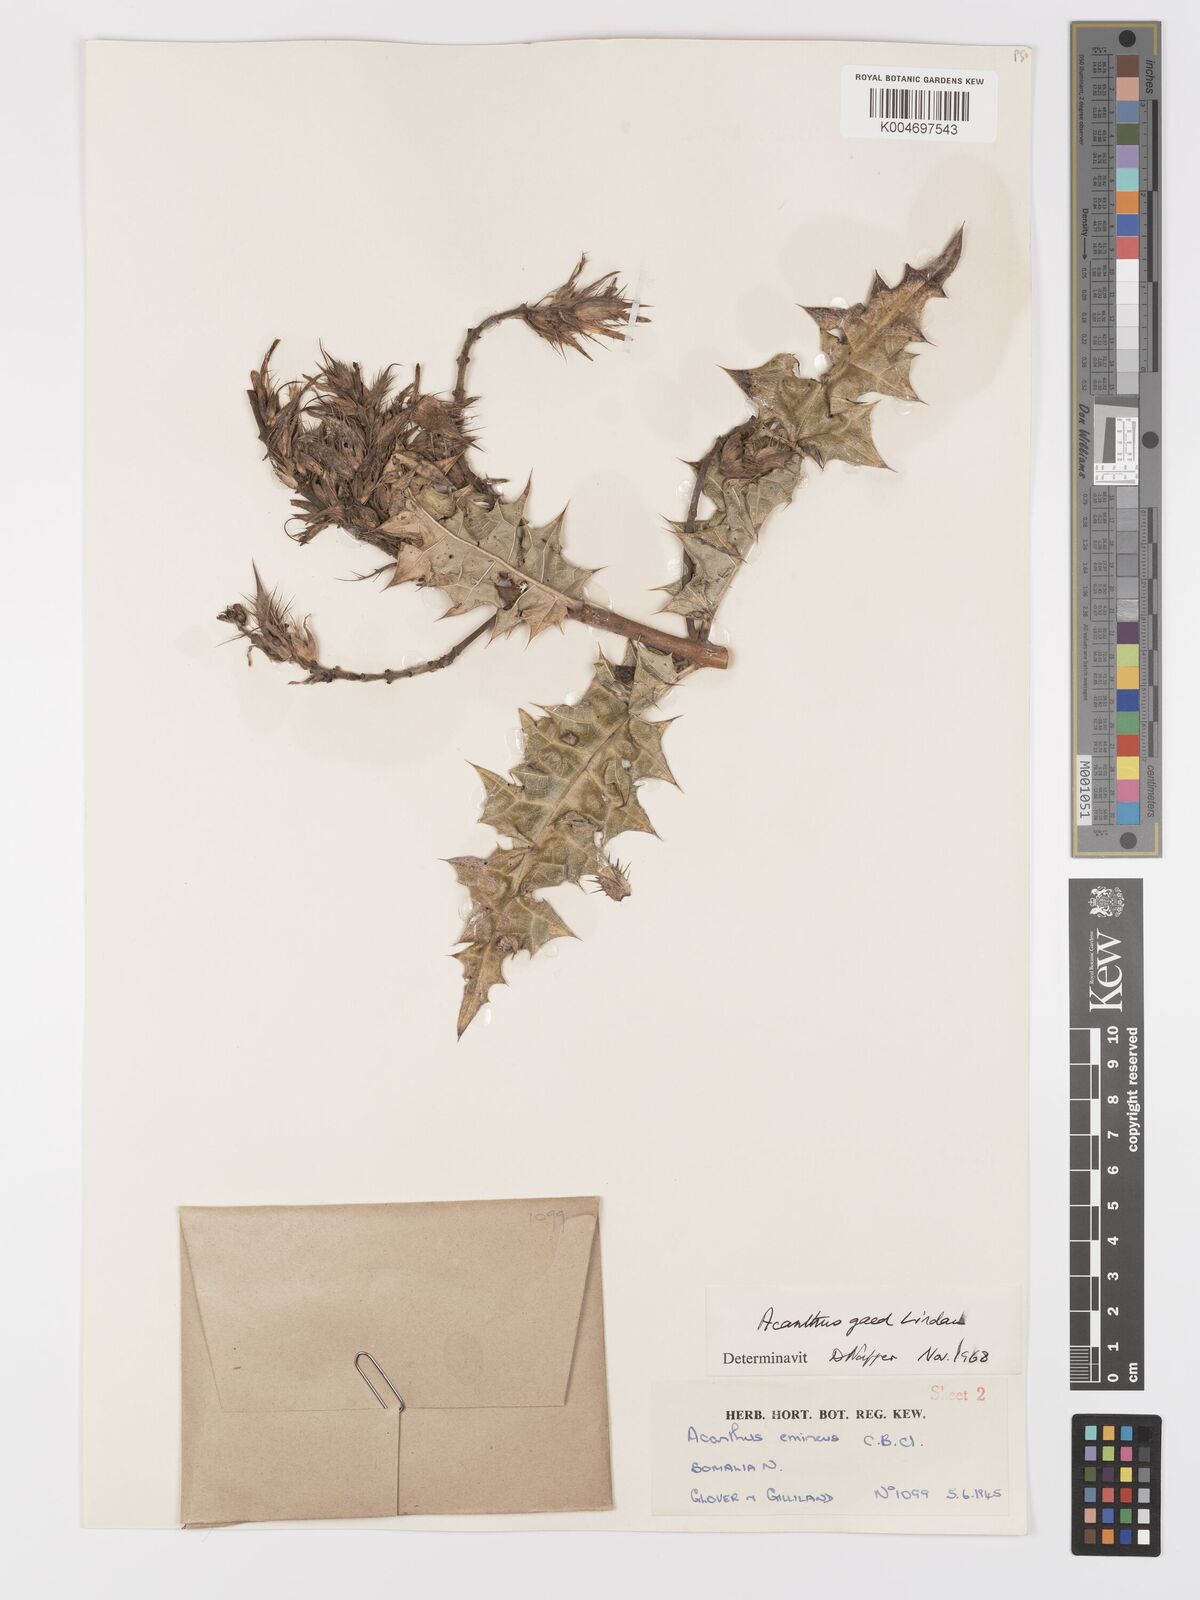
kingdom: Plantae
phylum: Tracheophyta
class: Magnoliopsida
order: Lamiales
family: Acanthaceae
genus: Acanthus
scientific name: Acanthus gaed
